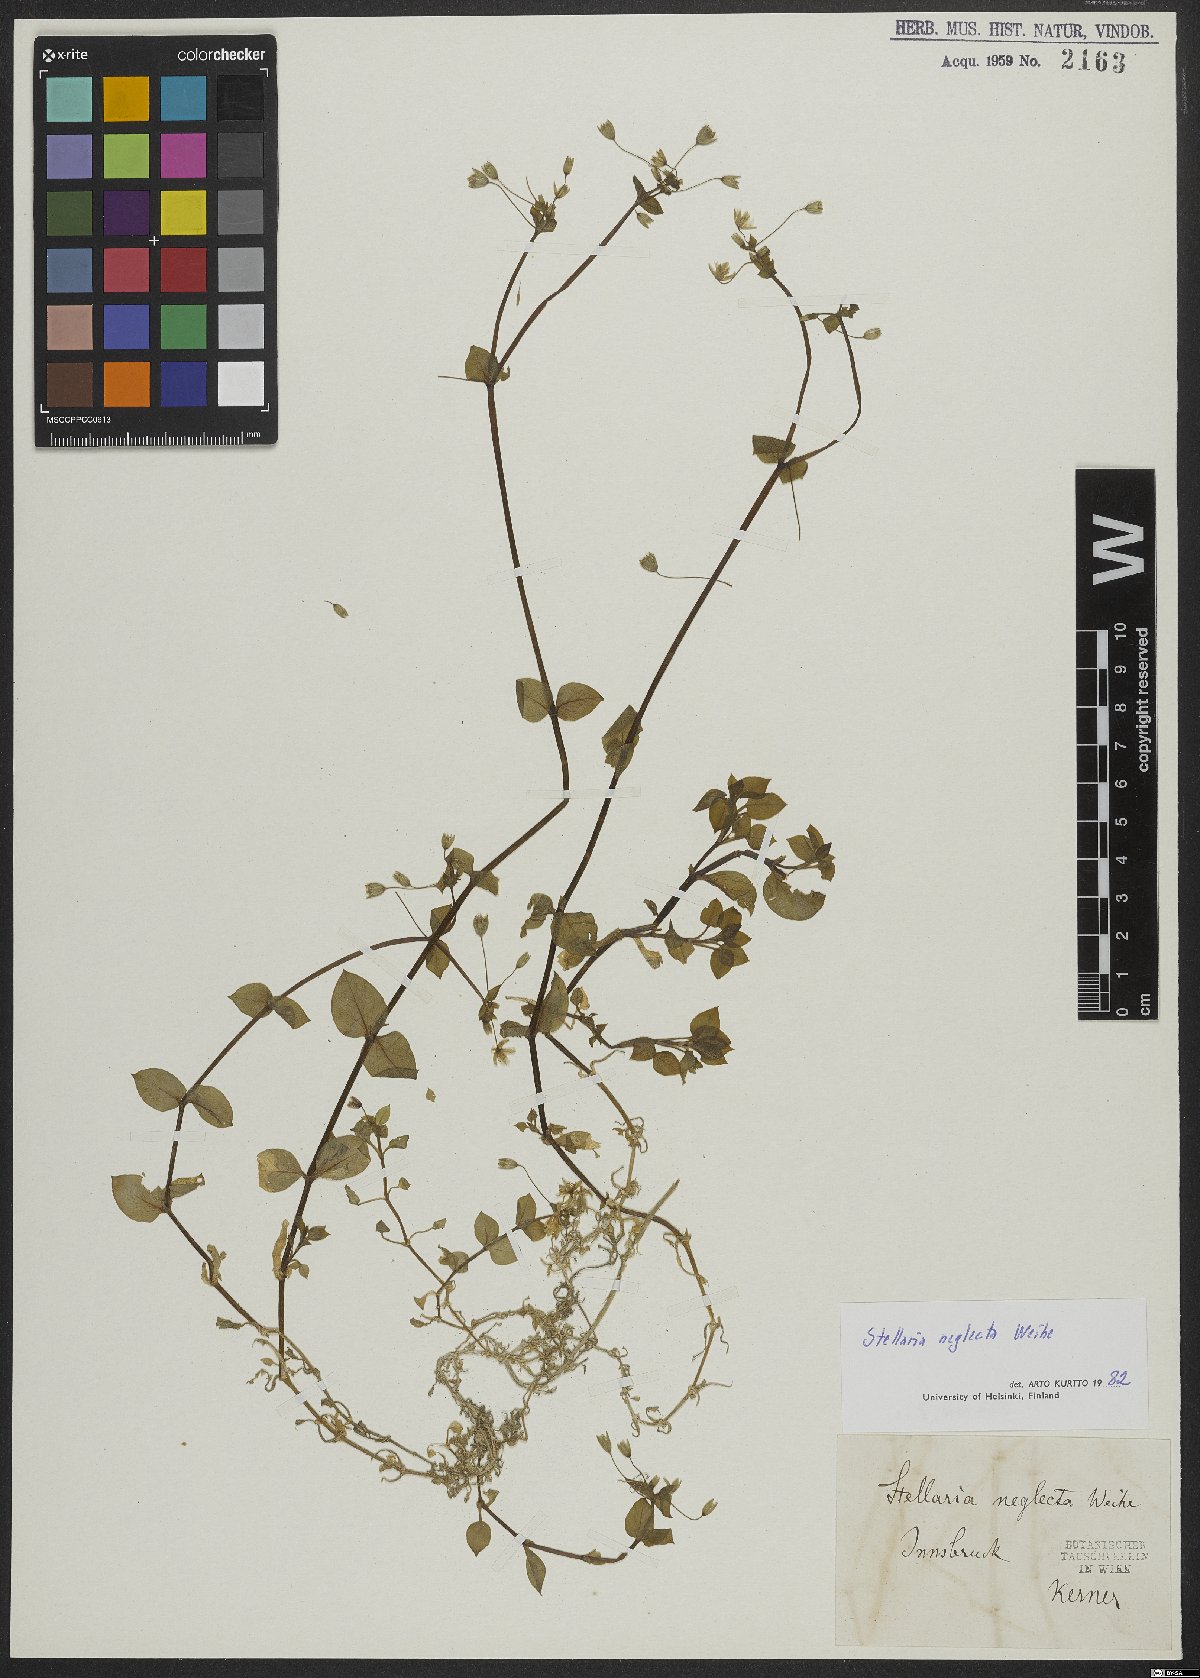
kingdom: Plantae
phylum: Tracheophyta
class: Magnoliopsida
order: Caryophyllales
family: Caryophyllaceae
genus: Stellaria
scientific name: Stellaria neglecta
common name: Greater chickweed
